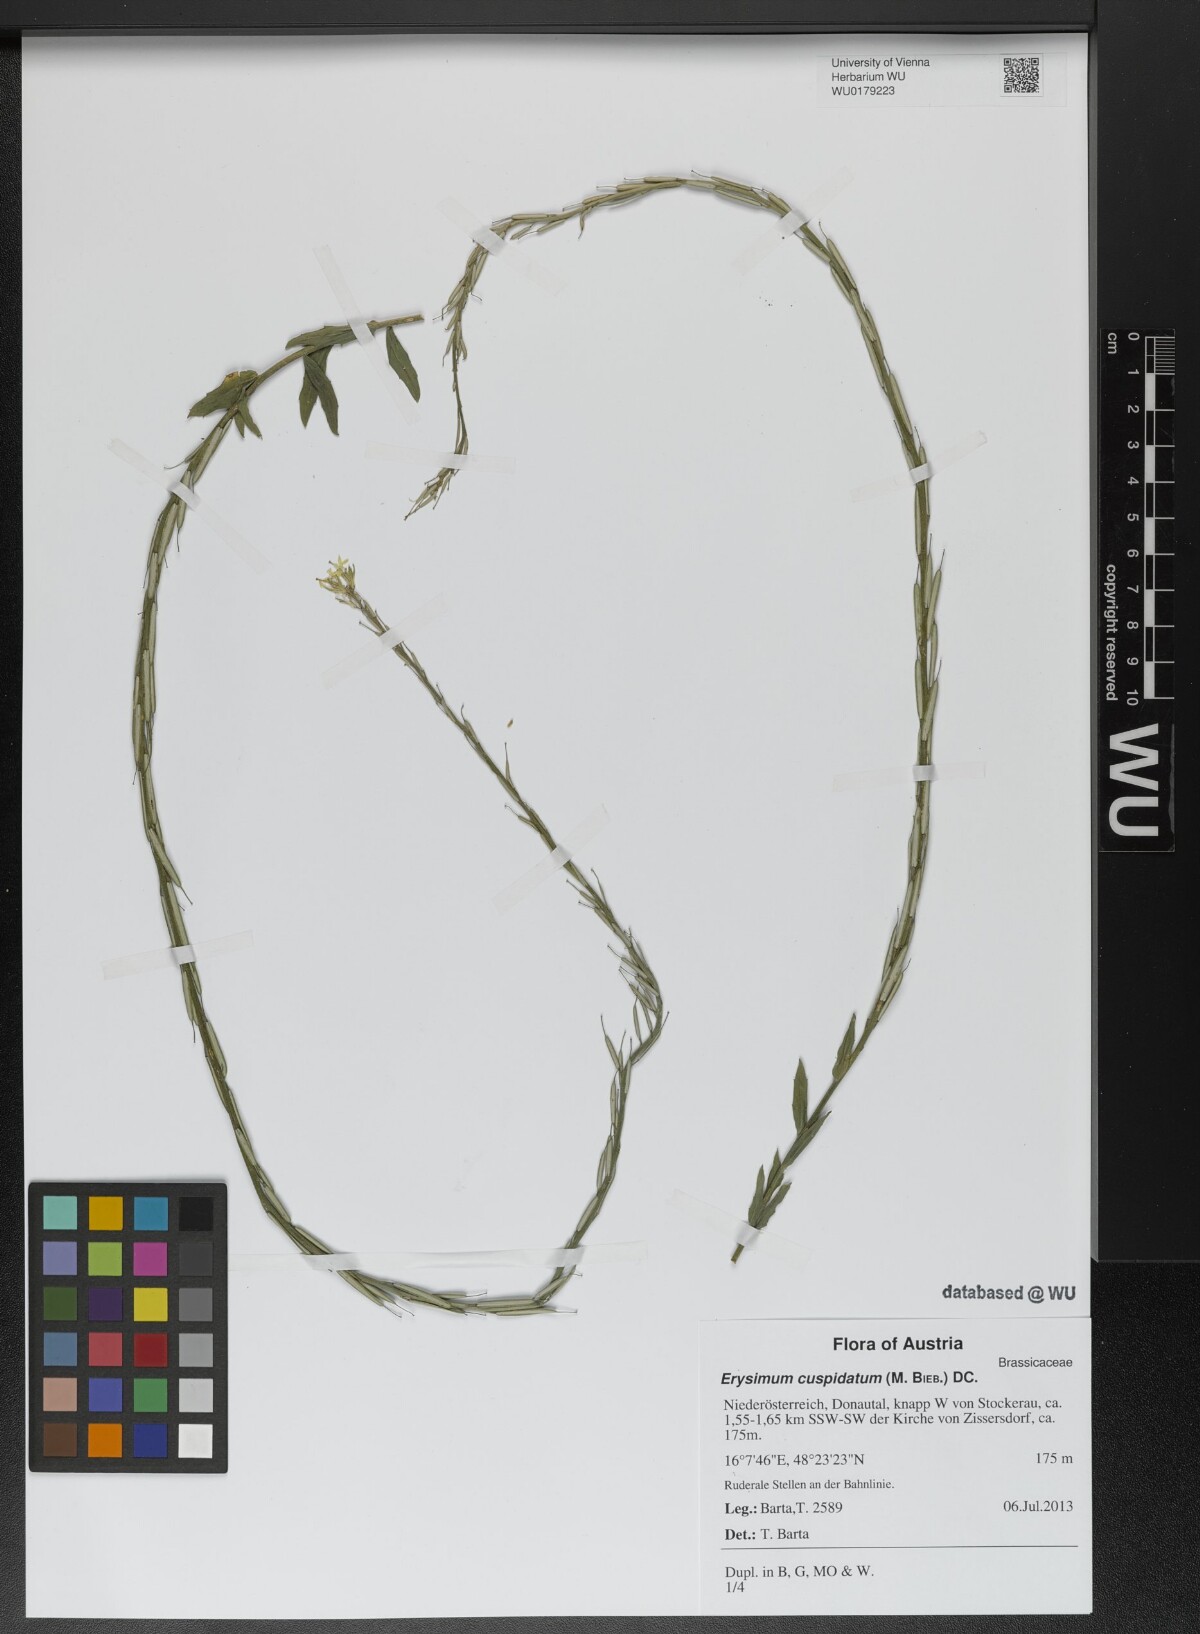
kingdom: Plantae
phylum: Tracheophyta
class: Magnoliopsida
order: Brassicales
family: Brassicaceae
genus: Erysimum
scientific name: Erysimum cuspidatum
